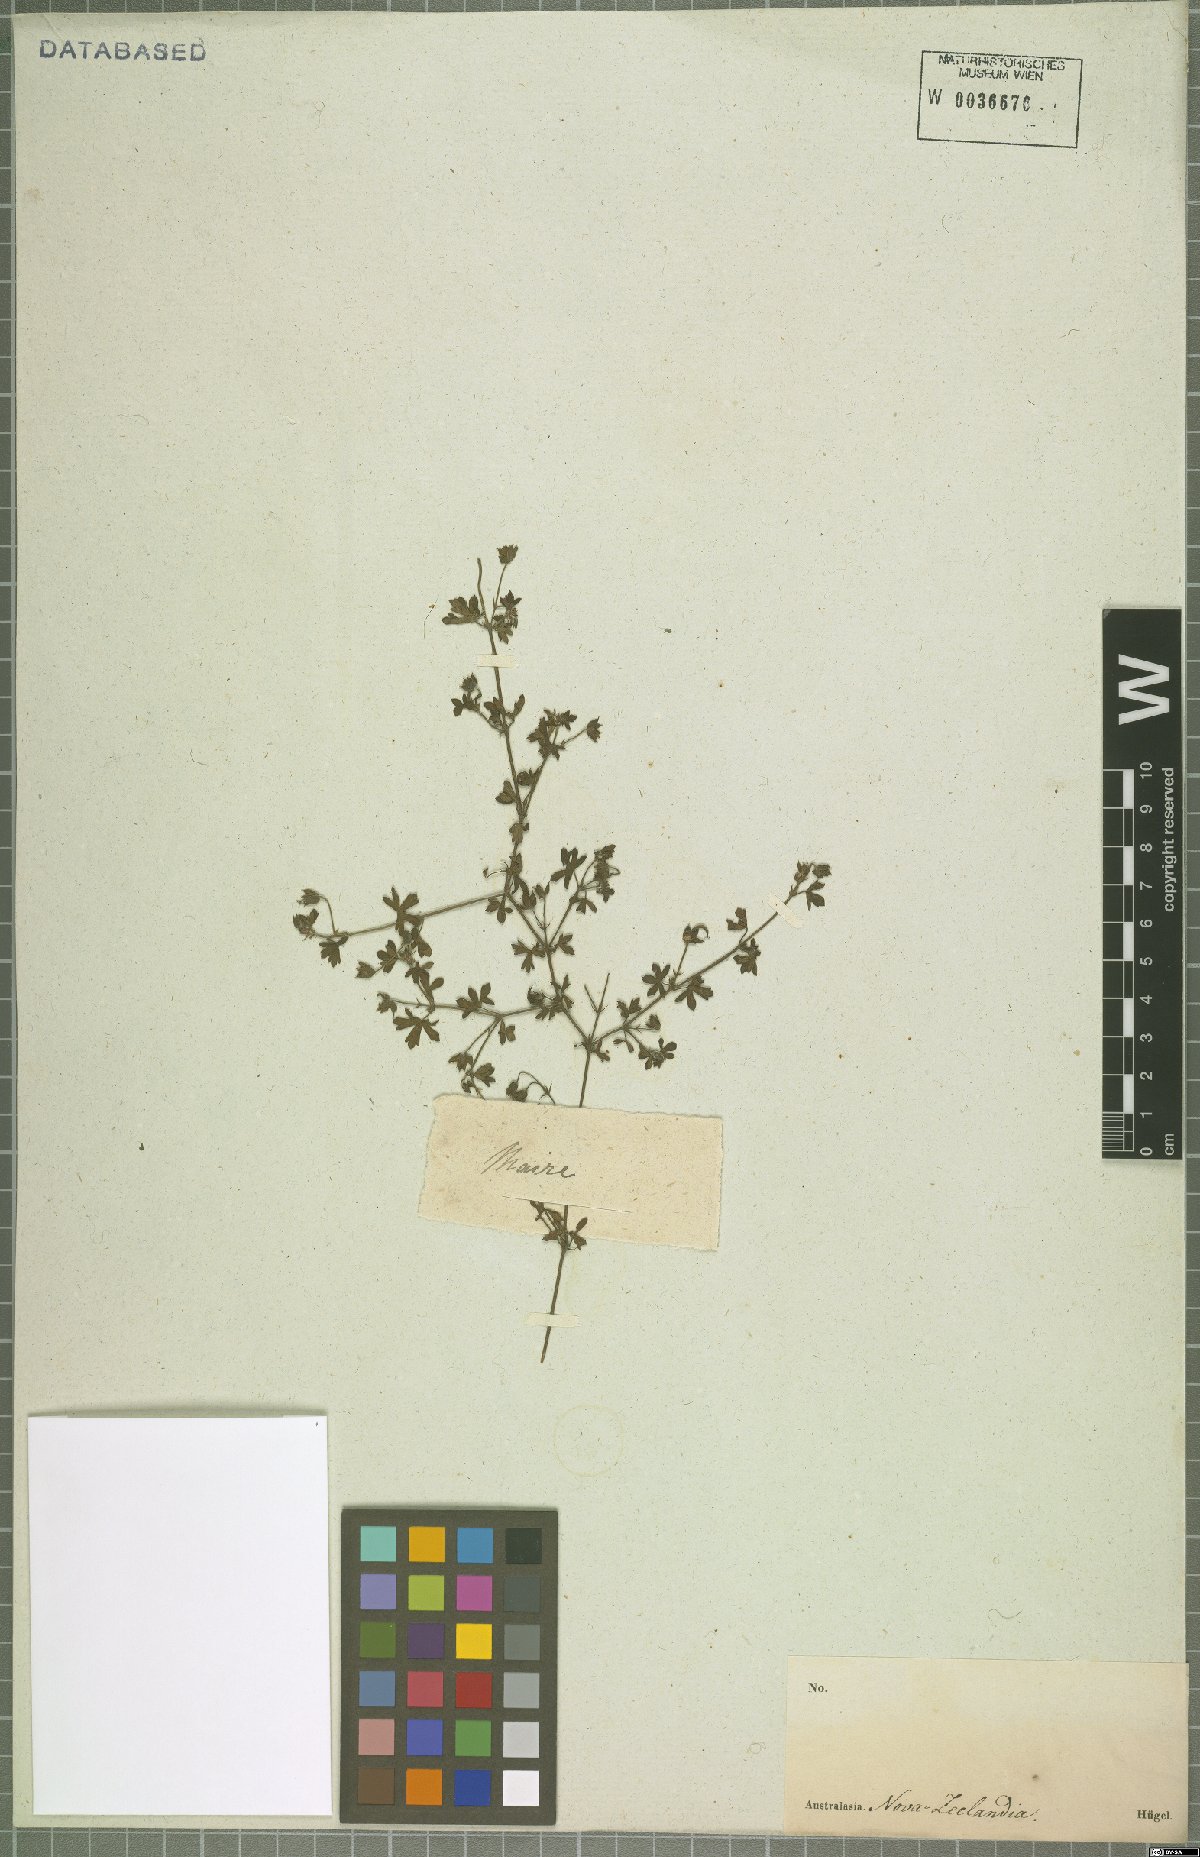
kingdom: Plantae
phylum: Tracheophyta
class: Magnoliopsida
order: Geraniales
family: Geraniaceae
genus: Geranium
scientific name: Geranium potentilloides
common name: Cinquefoil geranium
